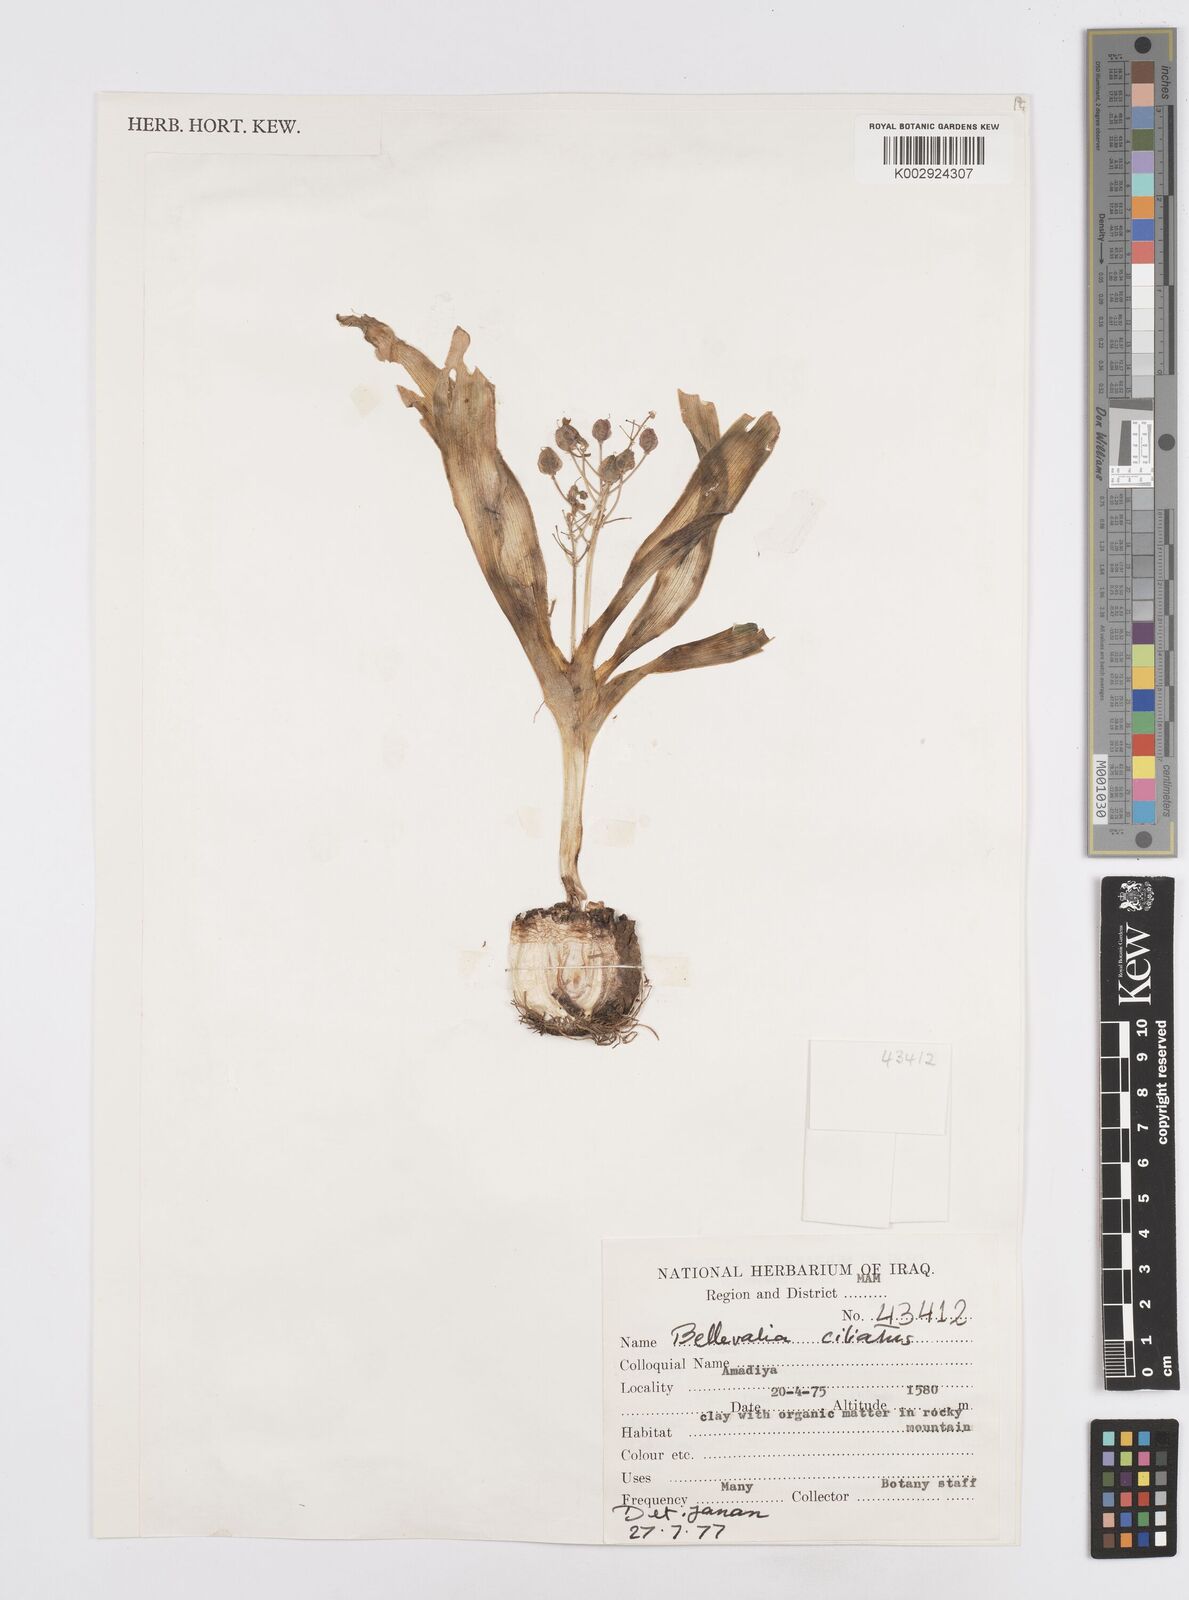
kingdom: Plantae
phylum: Tracheophyta
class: Liliopsida
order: Asparagales
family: Asparagaceae
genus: Bellevalia
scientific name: Bellevalia ciliata
